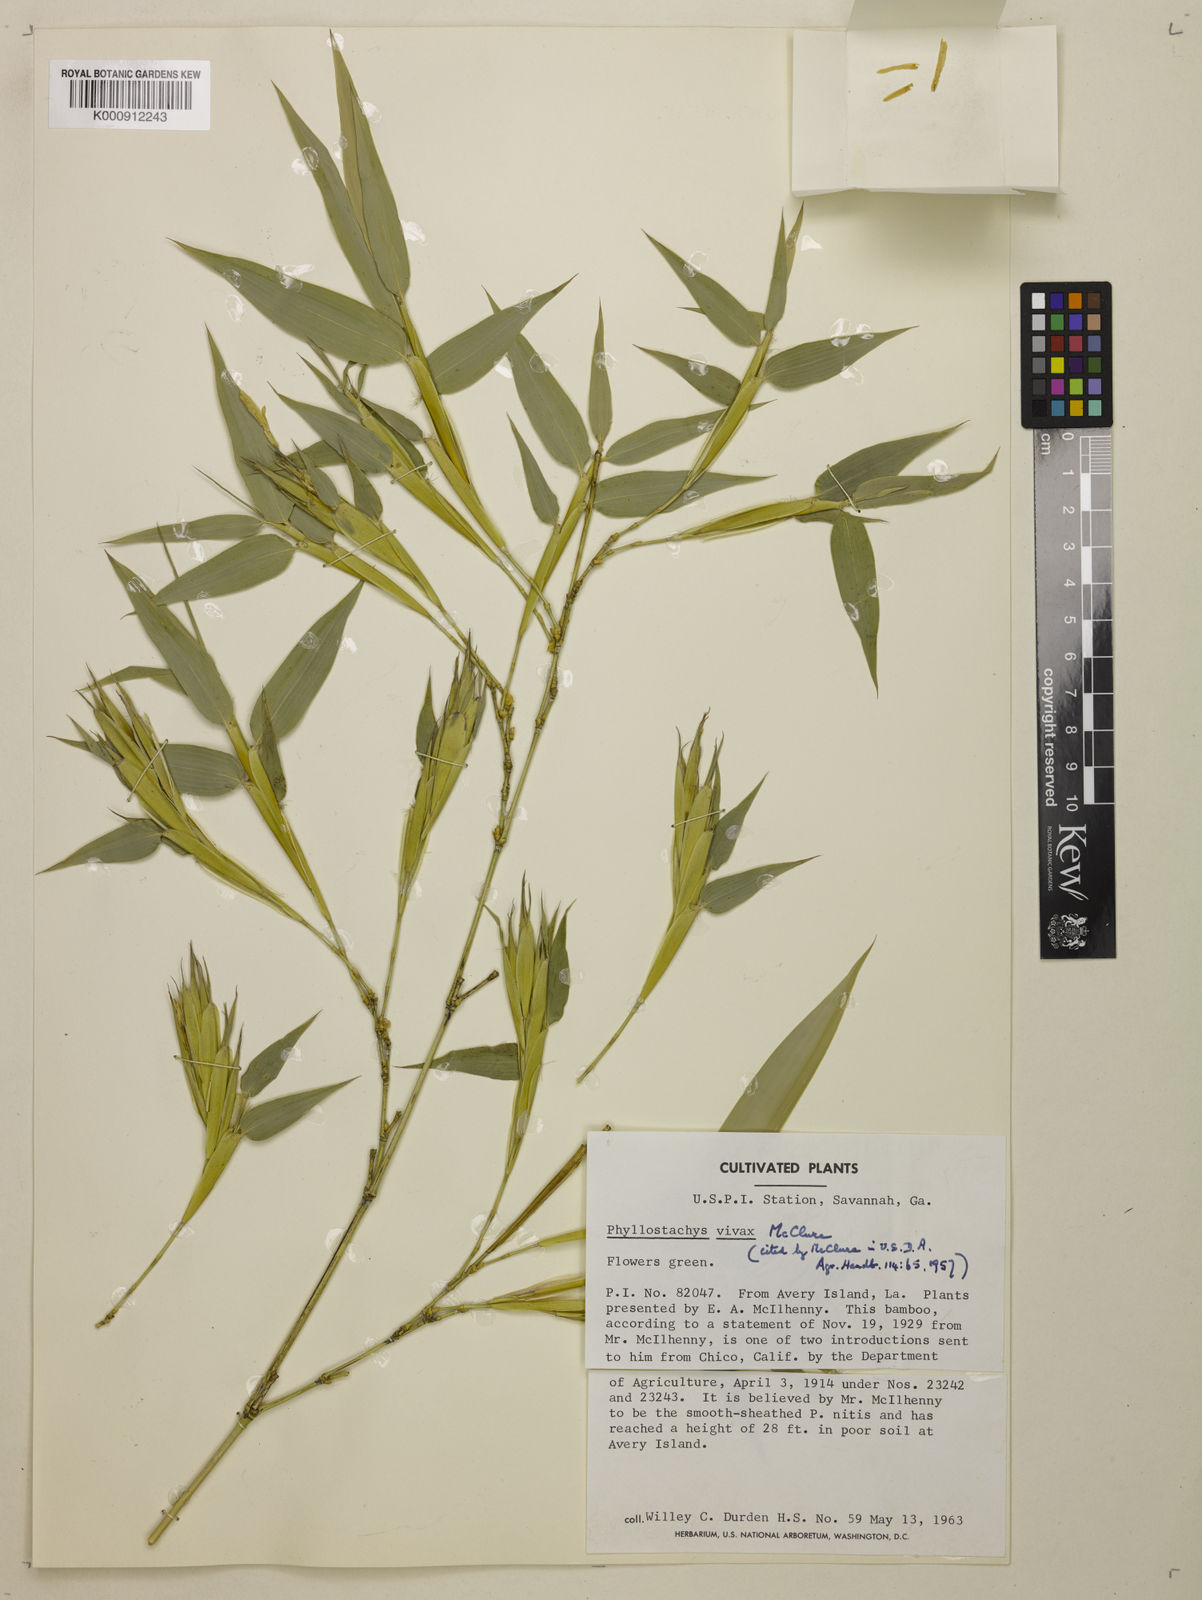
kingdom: Plantae
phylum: Tracheophyta
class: Liliopsida
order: Poales
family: Poaceae
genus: Phyllostachys
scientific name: Phyllostachys vivax
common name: Smooth-sheath bamboo
